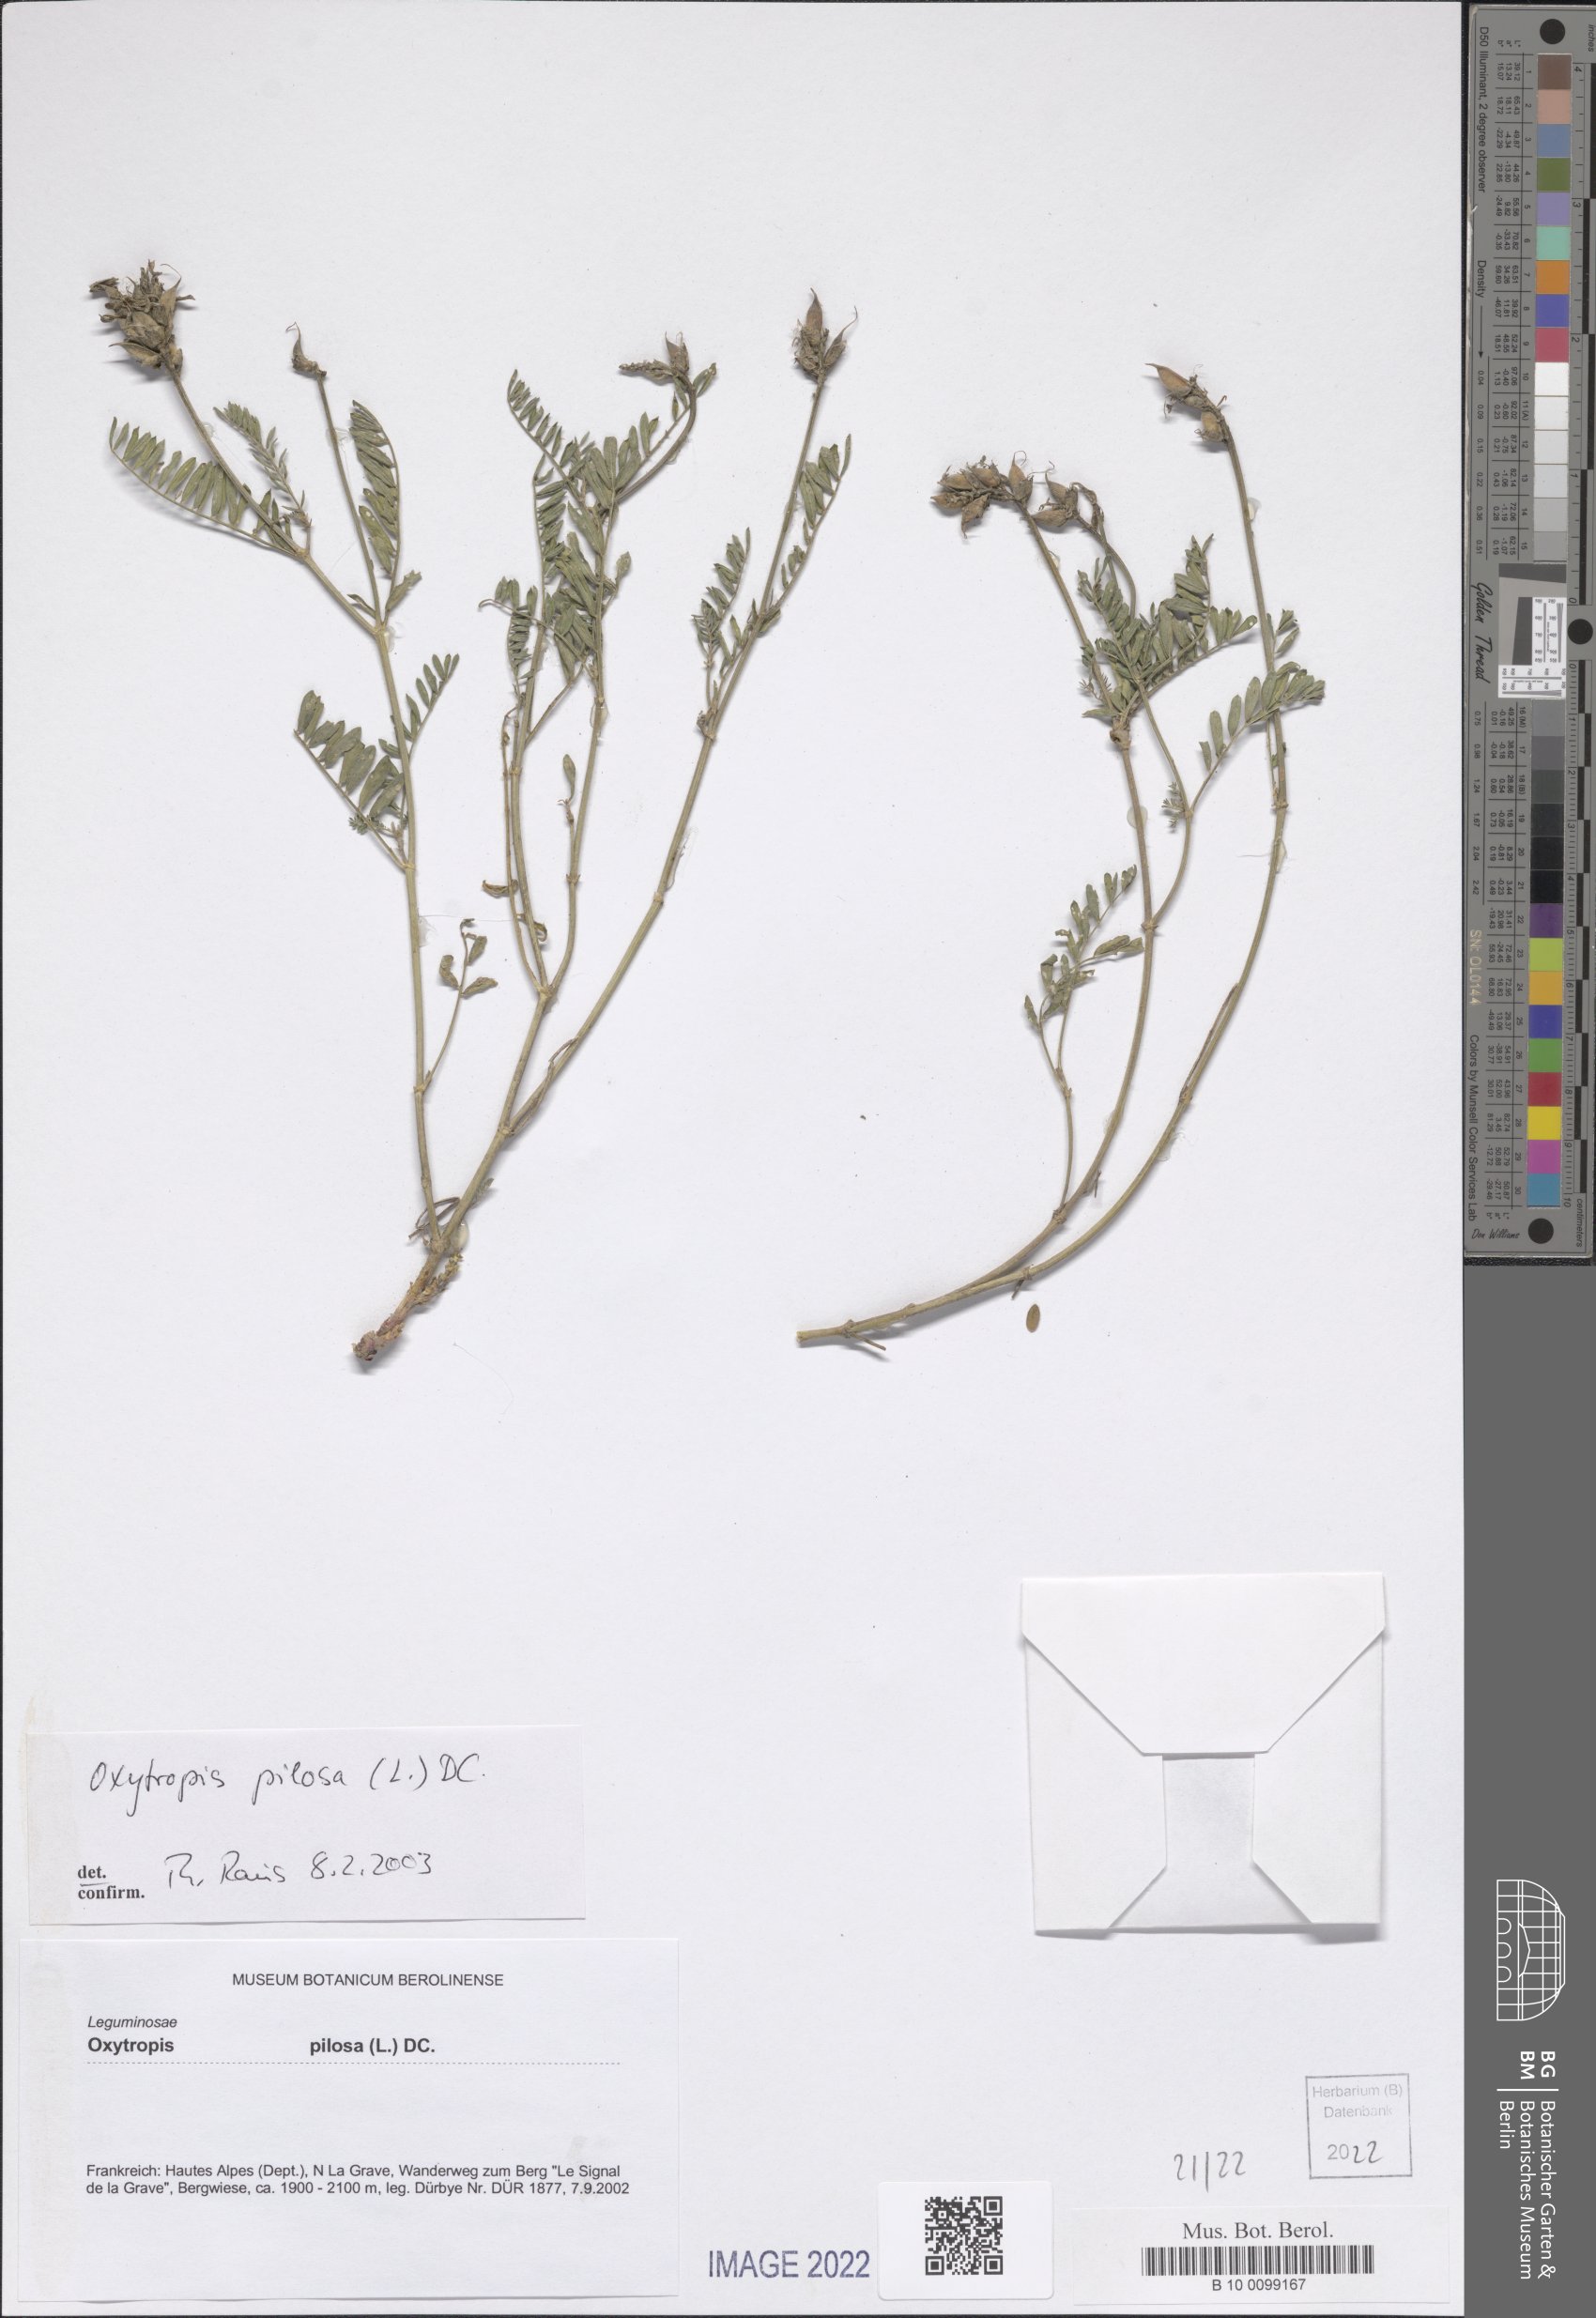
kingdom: Plantae
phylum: Tracheophyta
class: Magnoliopsida
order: Fabales
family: Fabaceae
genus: Oxytropis
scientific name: Oxytropis pilosa
